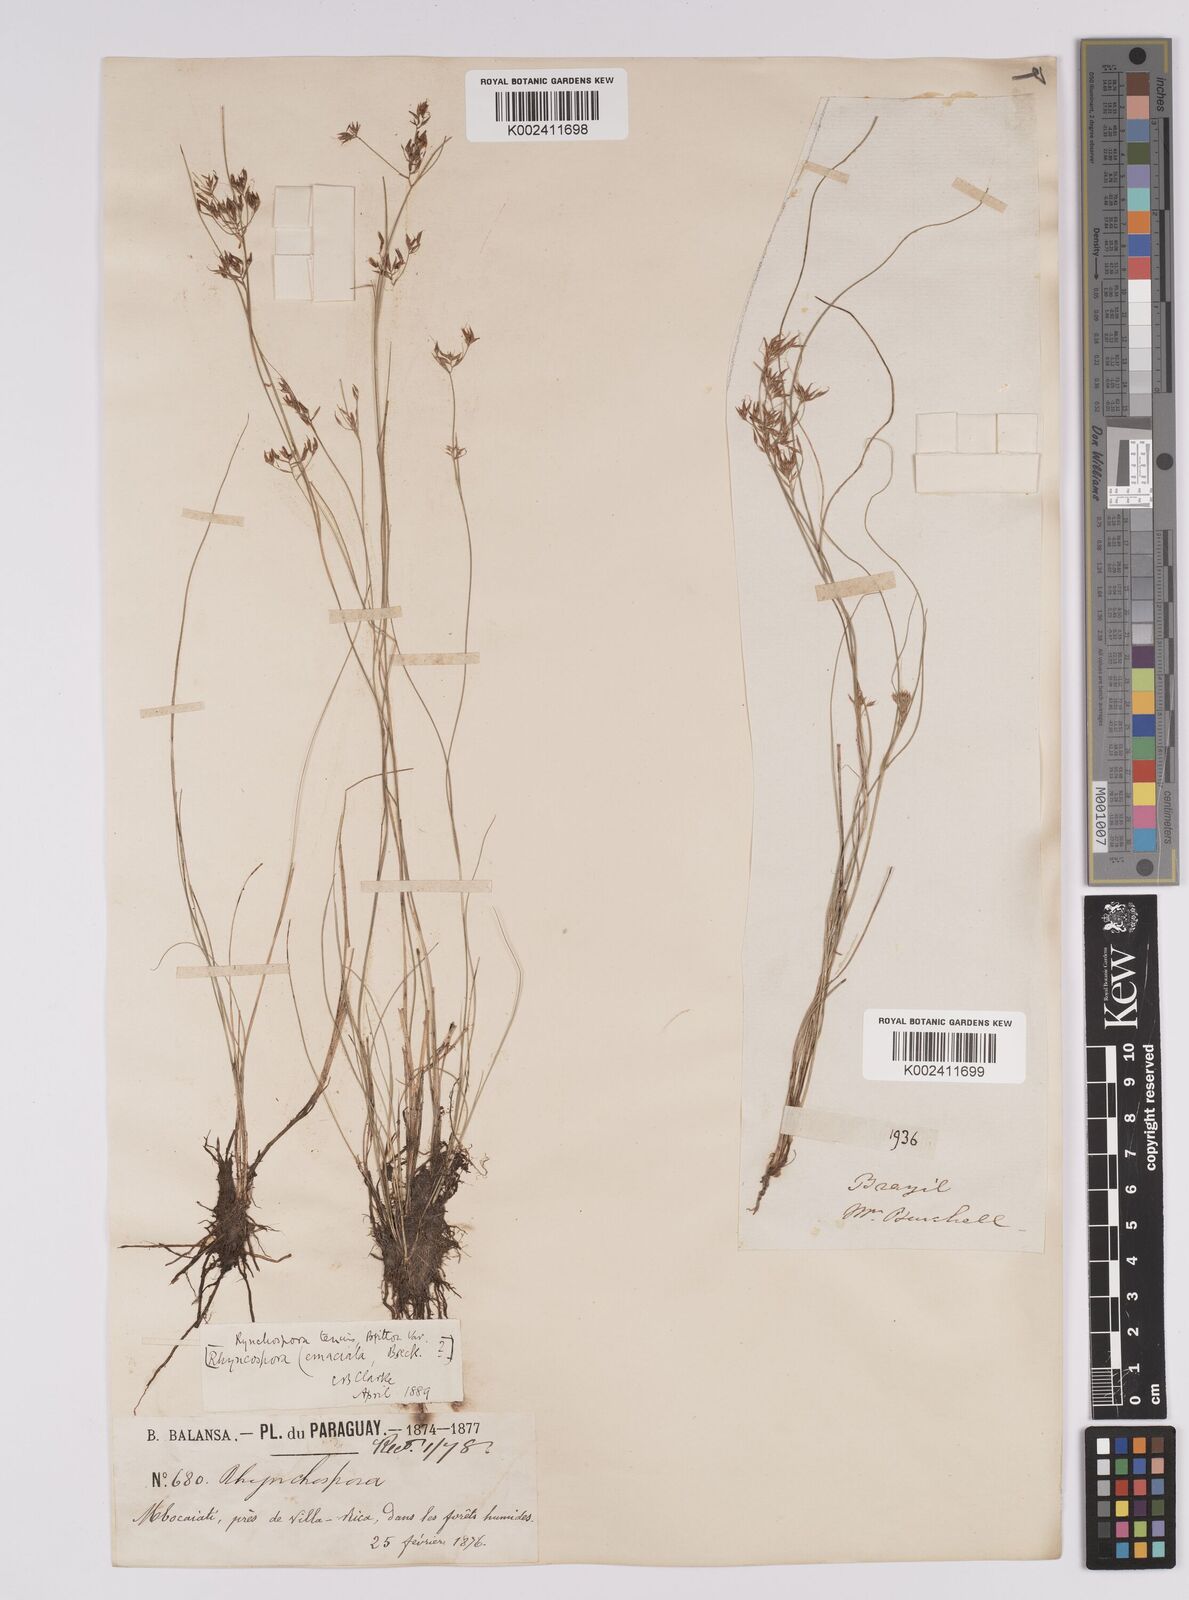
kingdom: Plantae
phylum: Tracheophyta
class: Liliopsida
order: Poales
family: Cyperaceae
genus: Rhynchospora
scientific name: Rhynchospora tenuis
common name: Quill beaksedge
